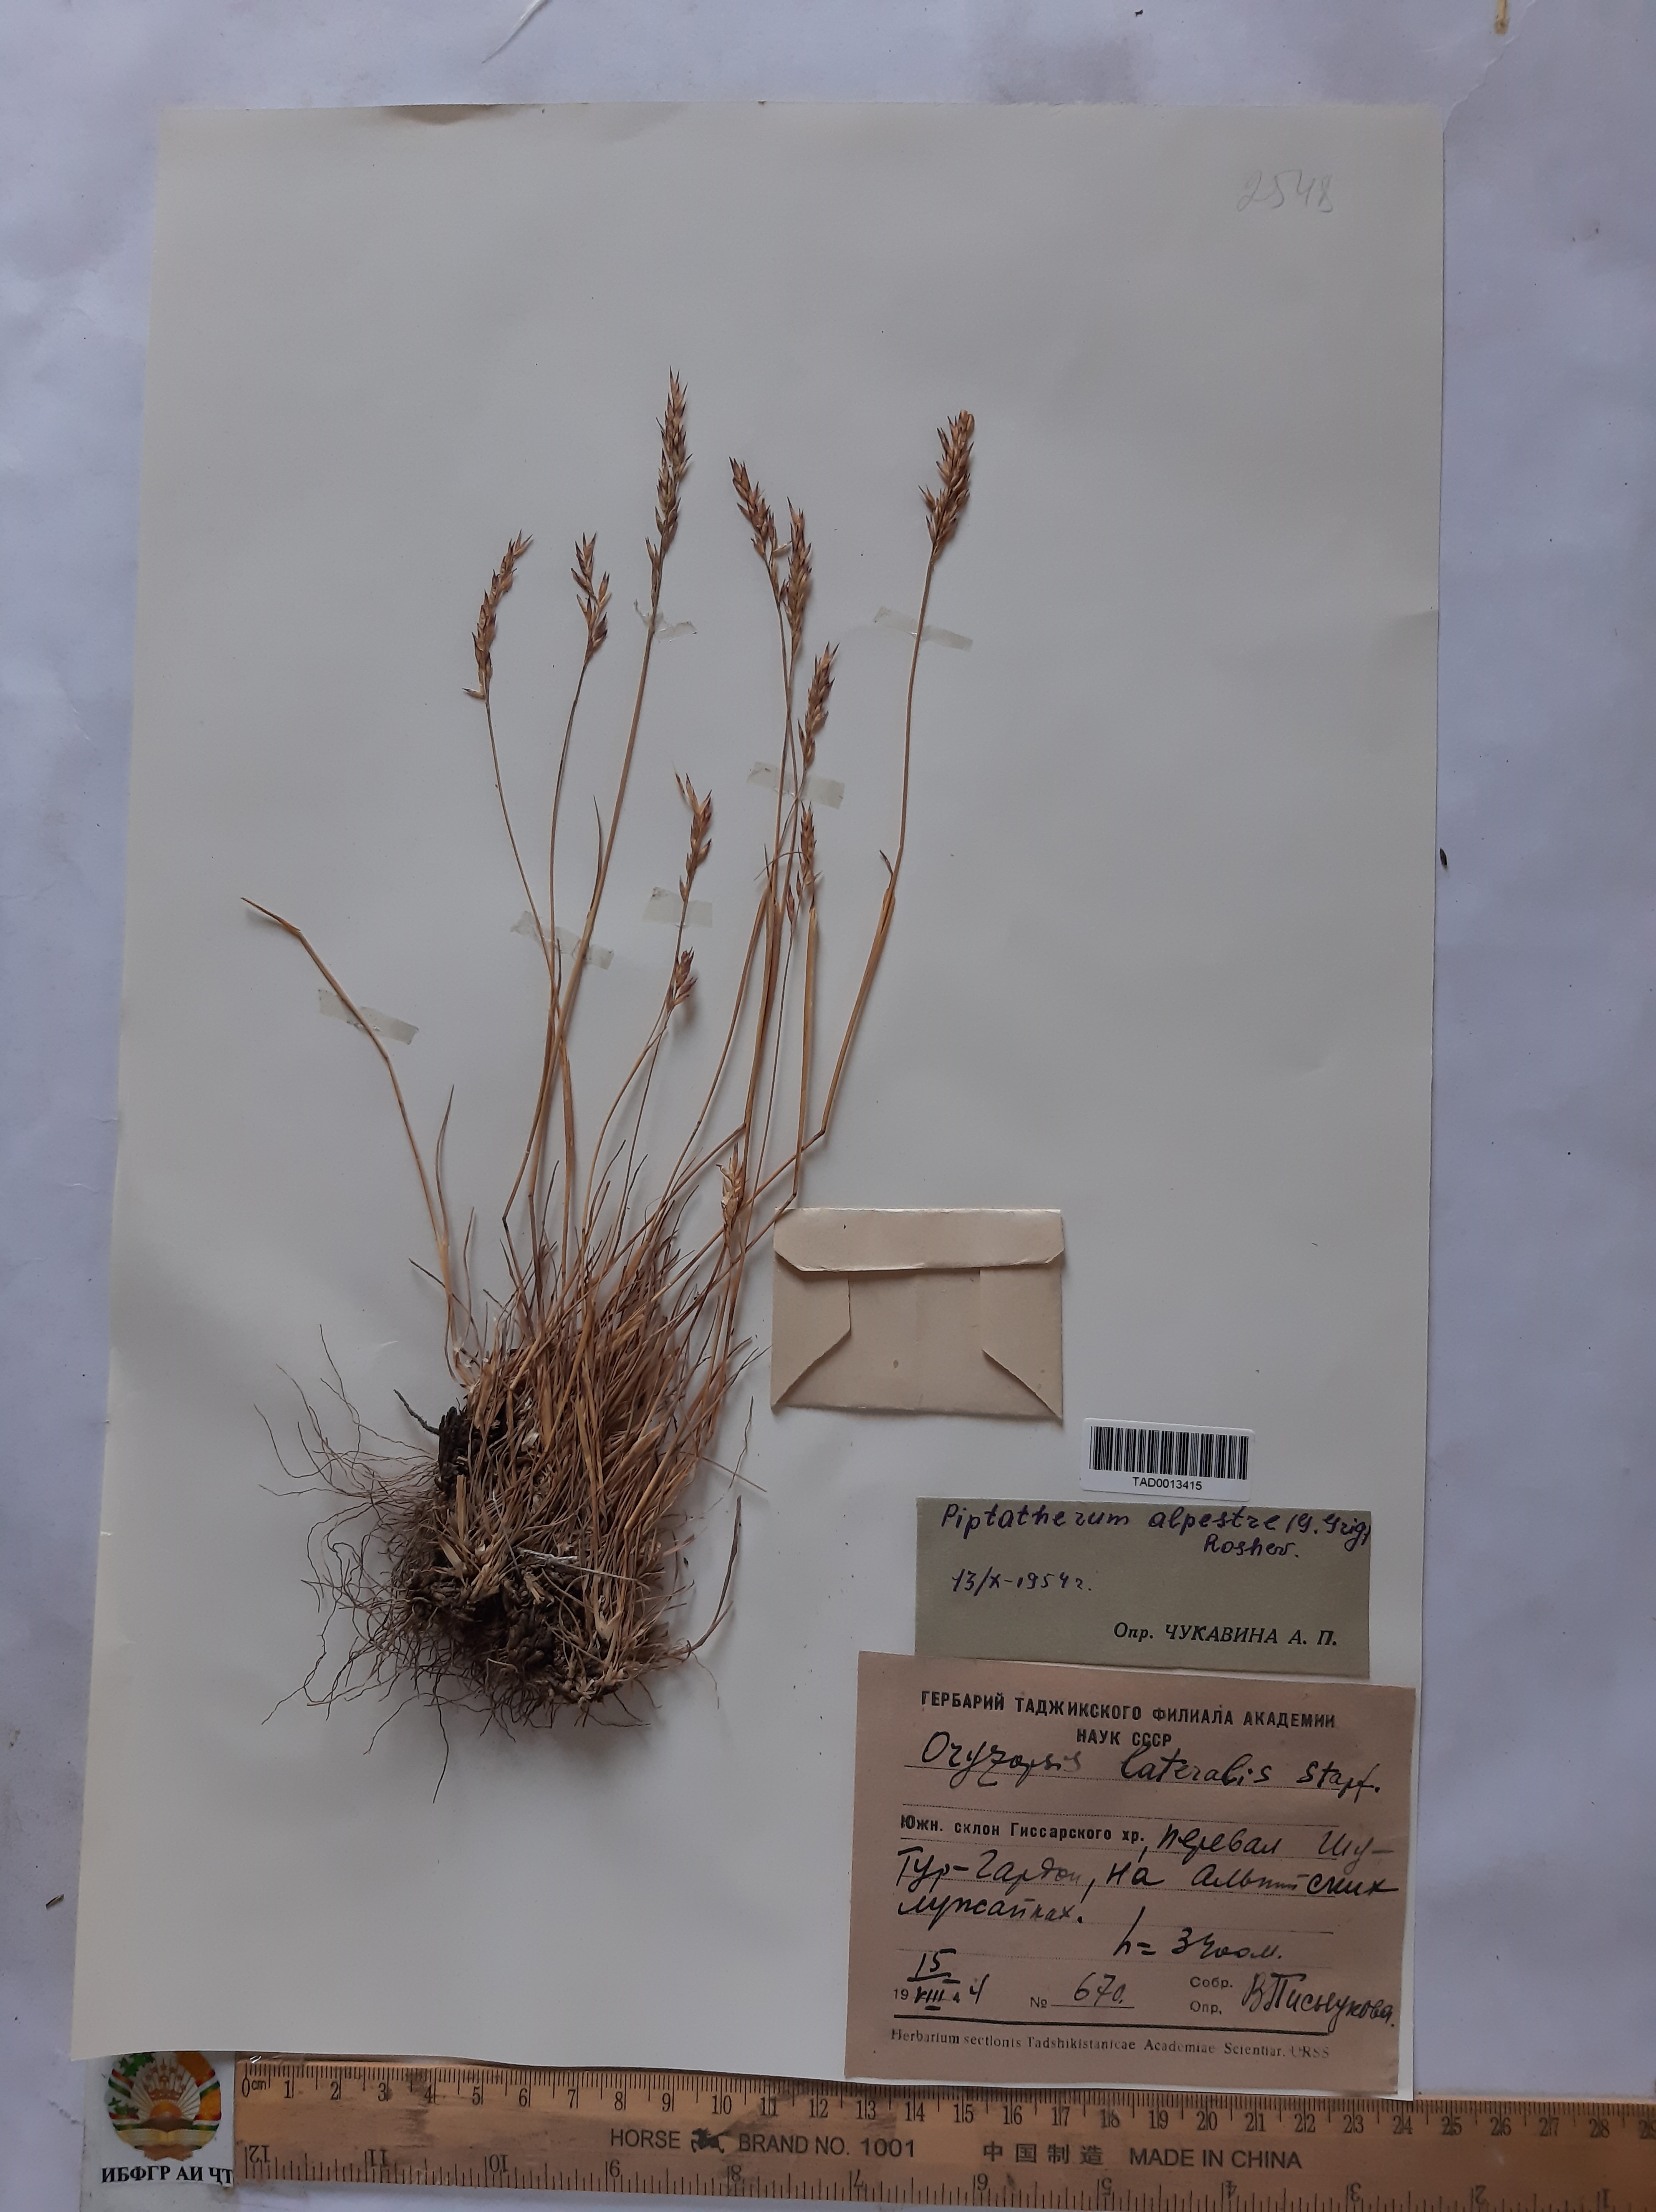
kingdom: Plantae
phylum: Tracheophyta
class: Liliopsida
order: Poales
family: Poaceae
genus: Piptatherum
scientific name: Piptatherum alpestre
